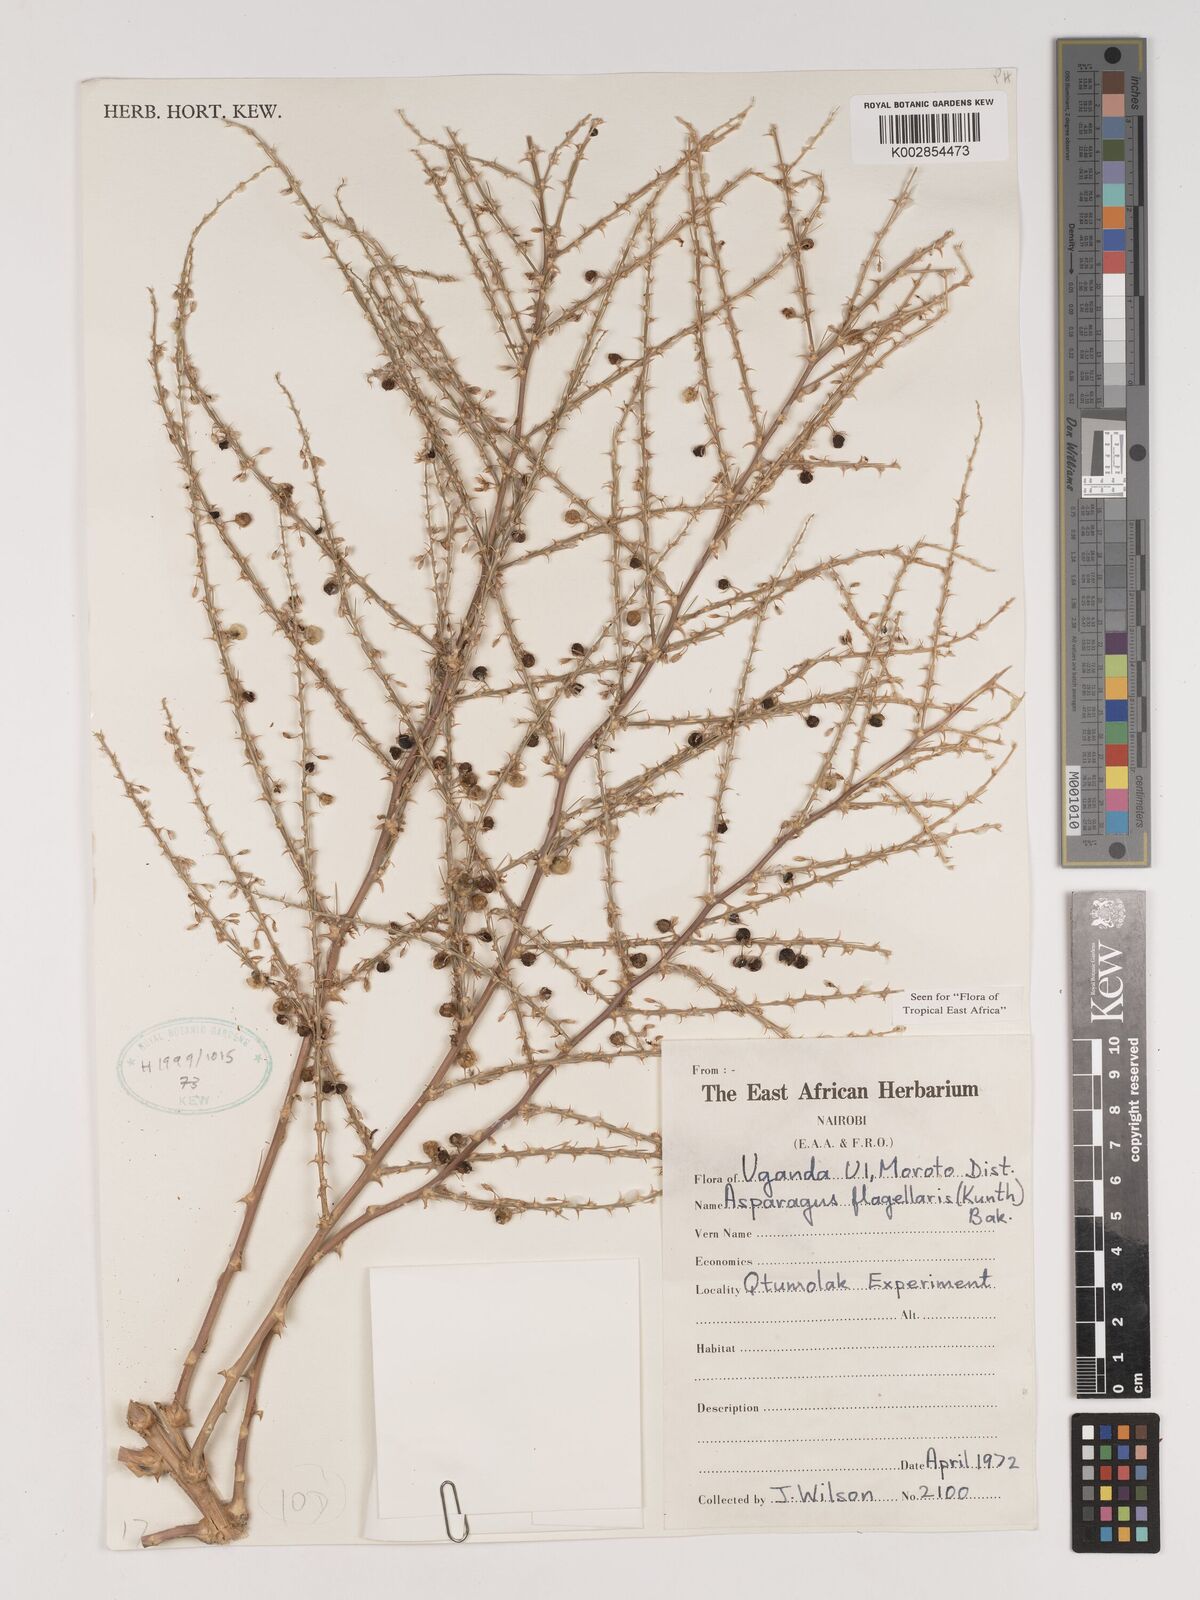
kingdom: Plantae
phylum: Tracheophyta
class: Liliopsida
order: Asparagales
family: Asparagaceae
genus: Asparagus
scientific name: Asparagus flagellaris
